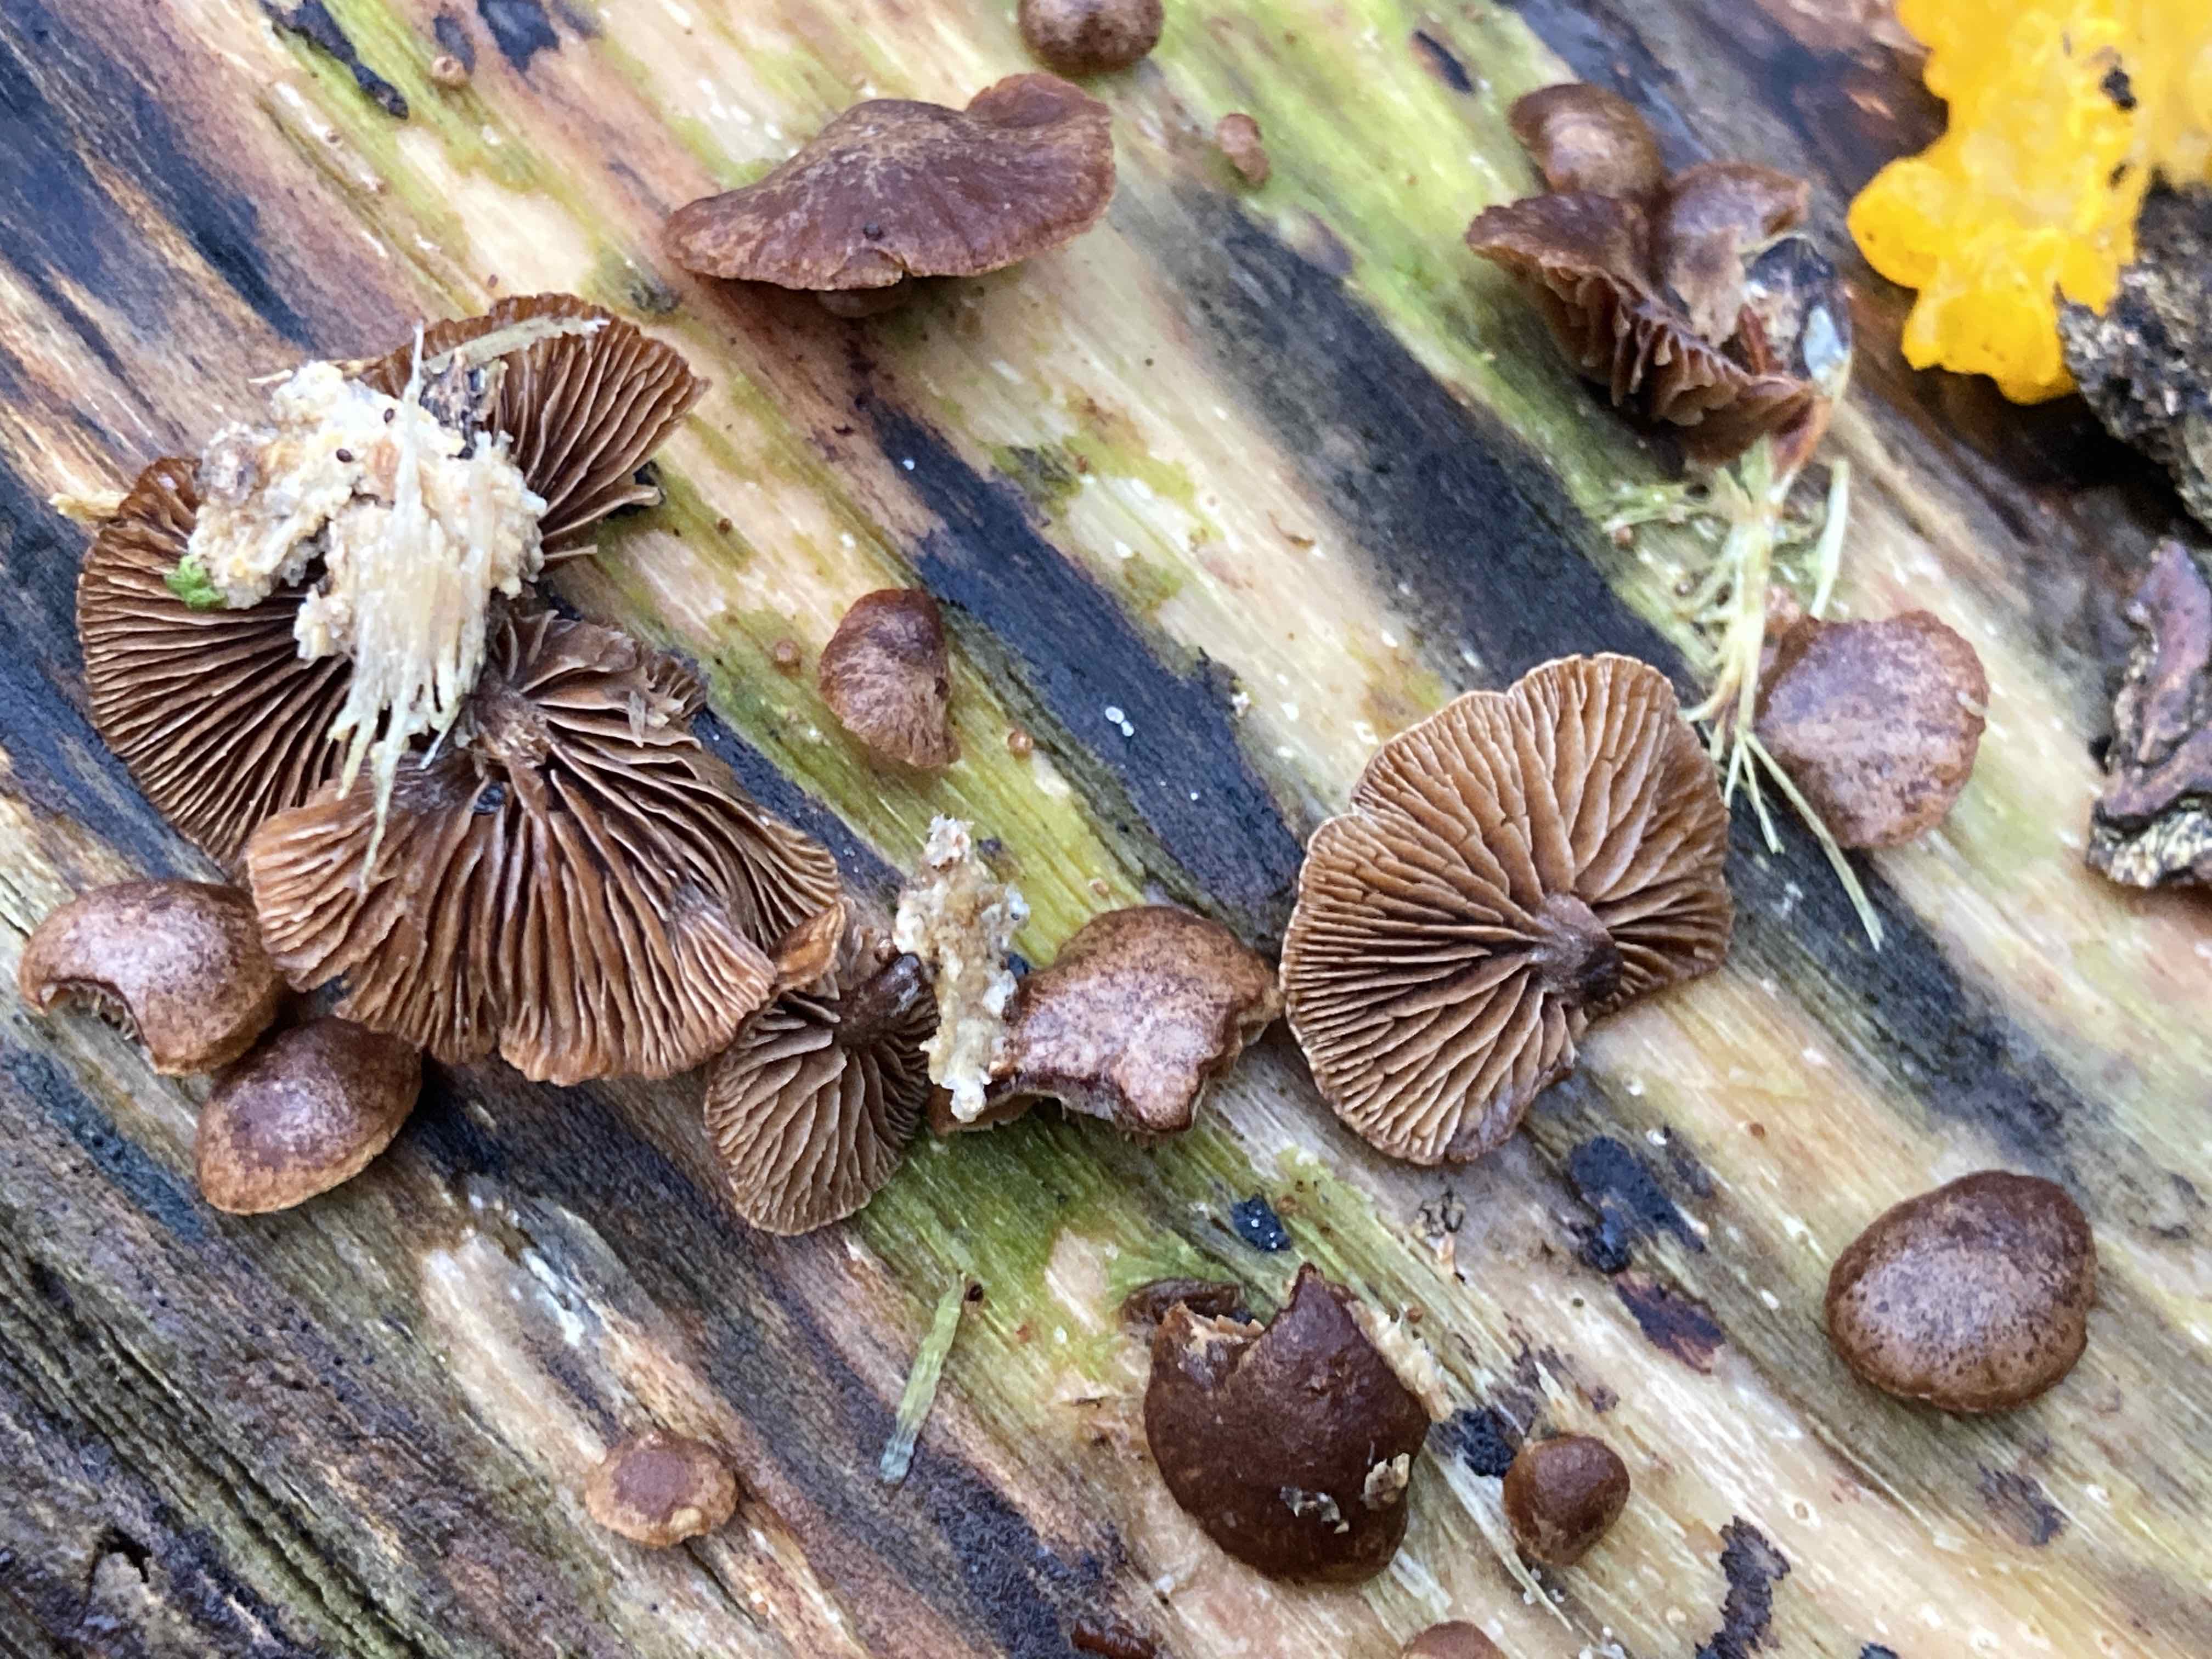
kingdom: Fungi
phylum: Basidiomycota
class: Agaricomycetes
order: Agaricales
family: Strophariaceae
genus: Deconica
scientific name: Deconica horizontalis
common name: ved-stråhat
